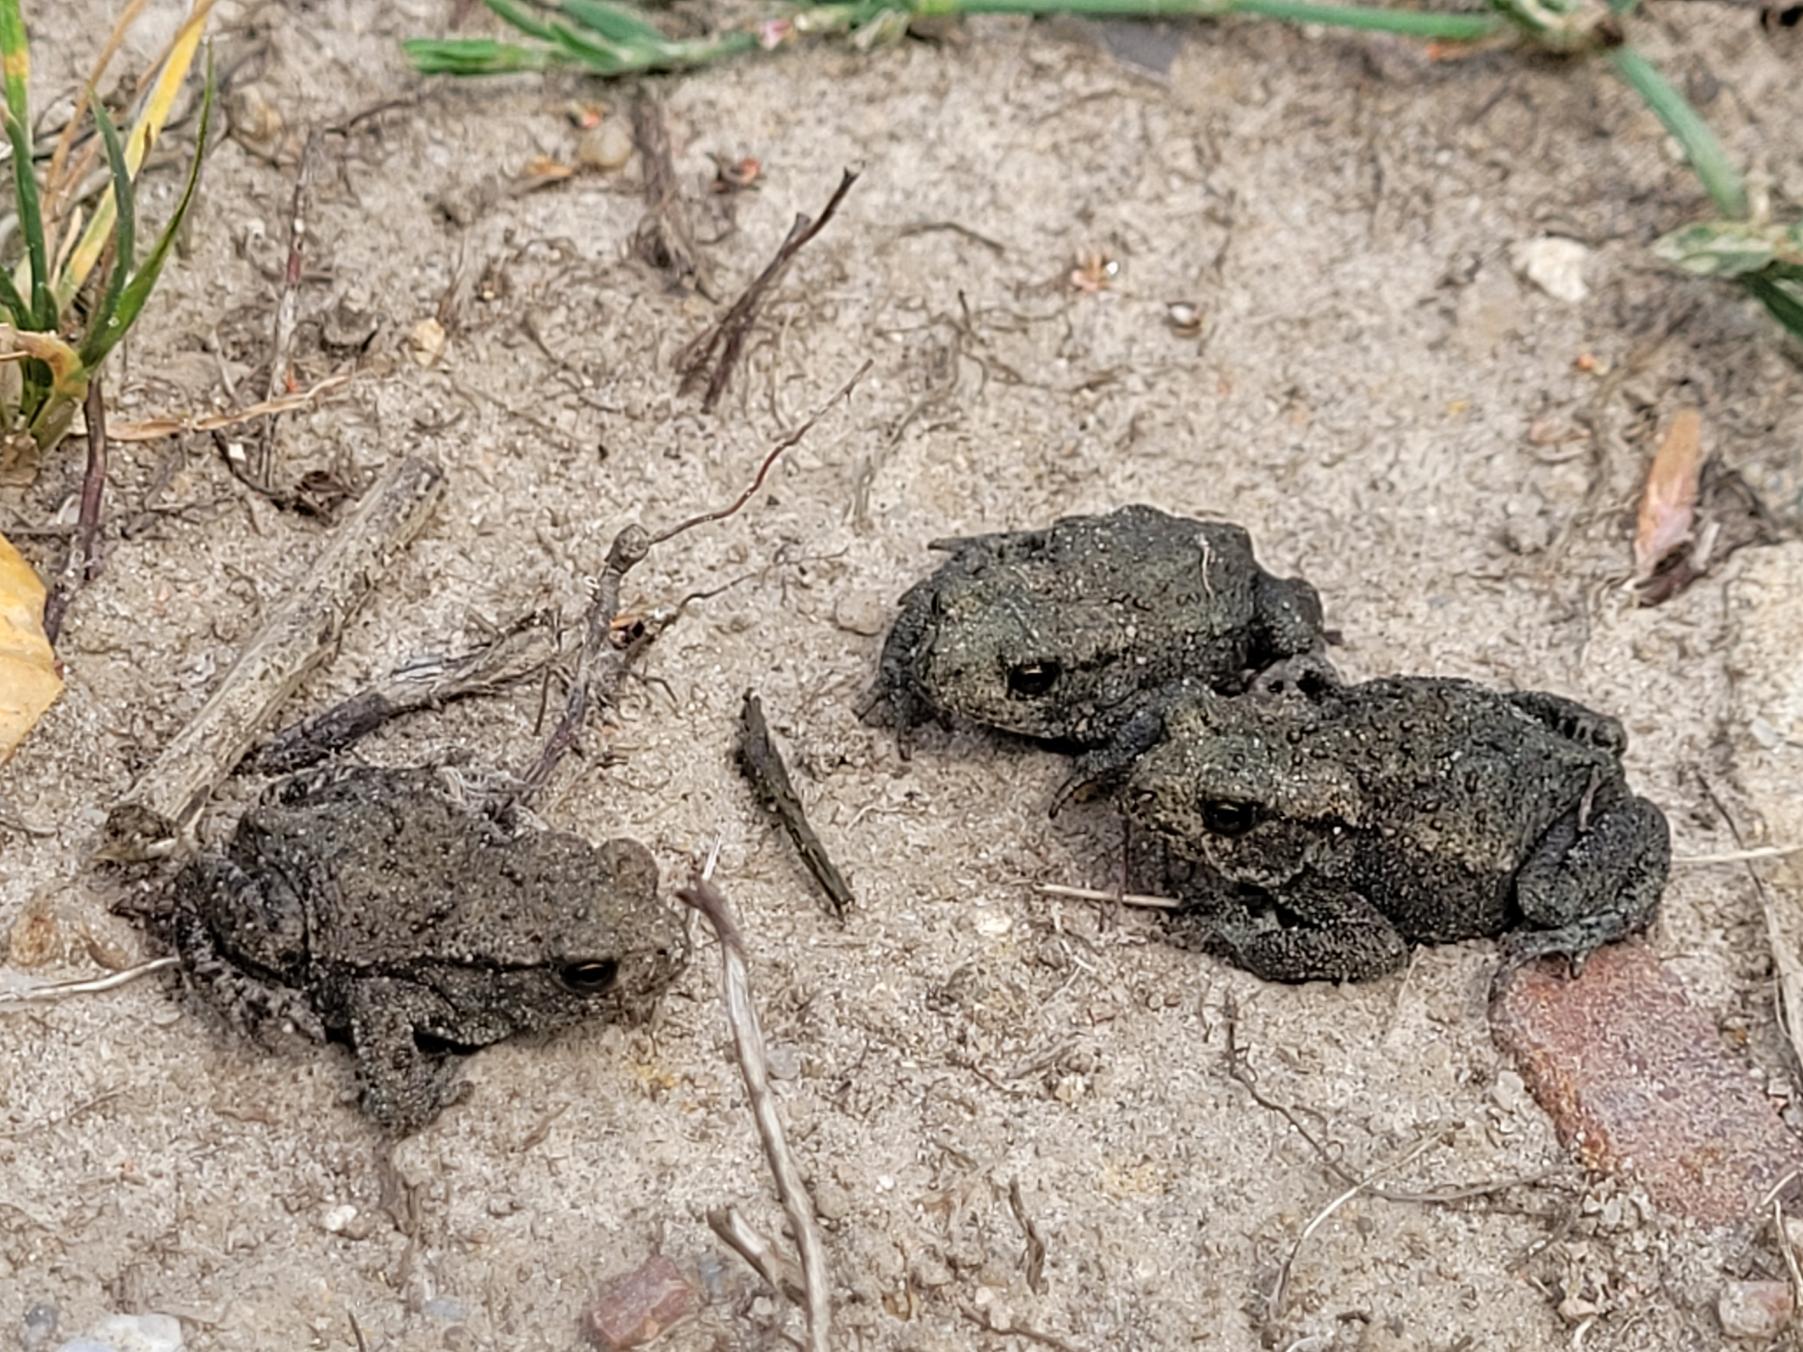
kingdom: Animalia
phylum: Chordata
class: Amphibia
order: Anura
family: Bufonidae
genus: Bufo
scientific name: Bufo bufo
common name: Skrubtudse
